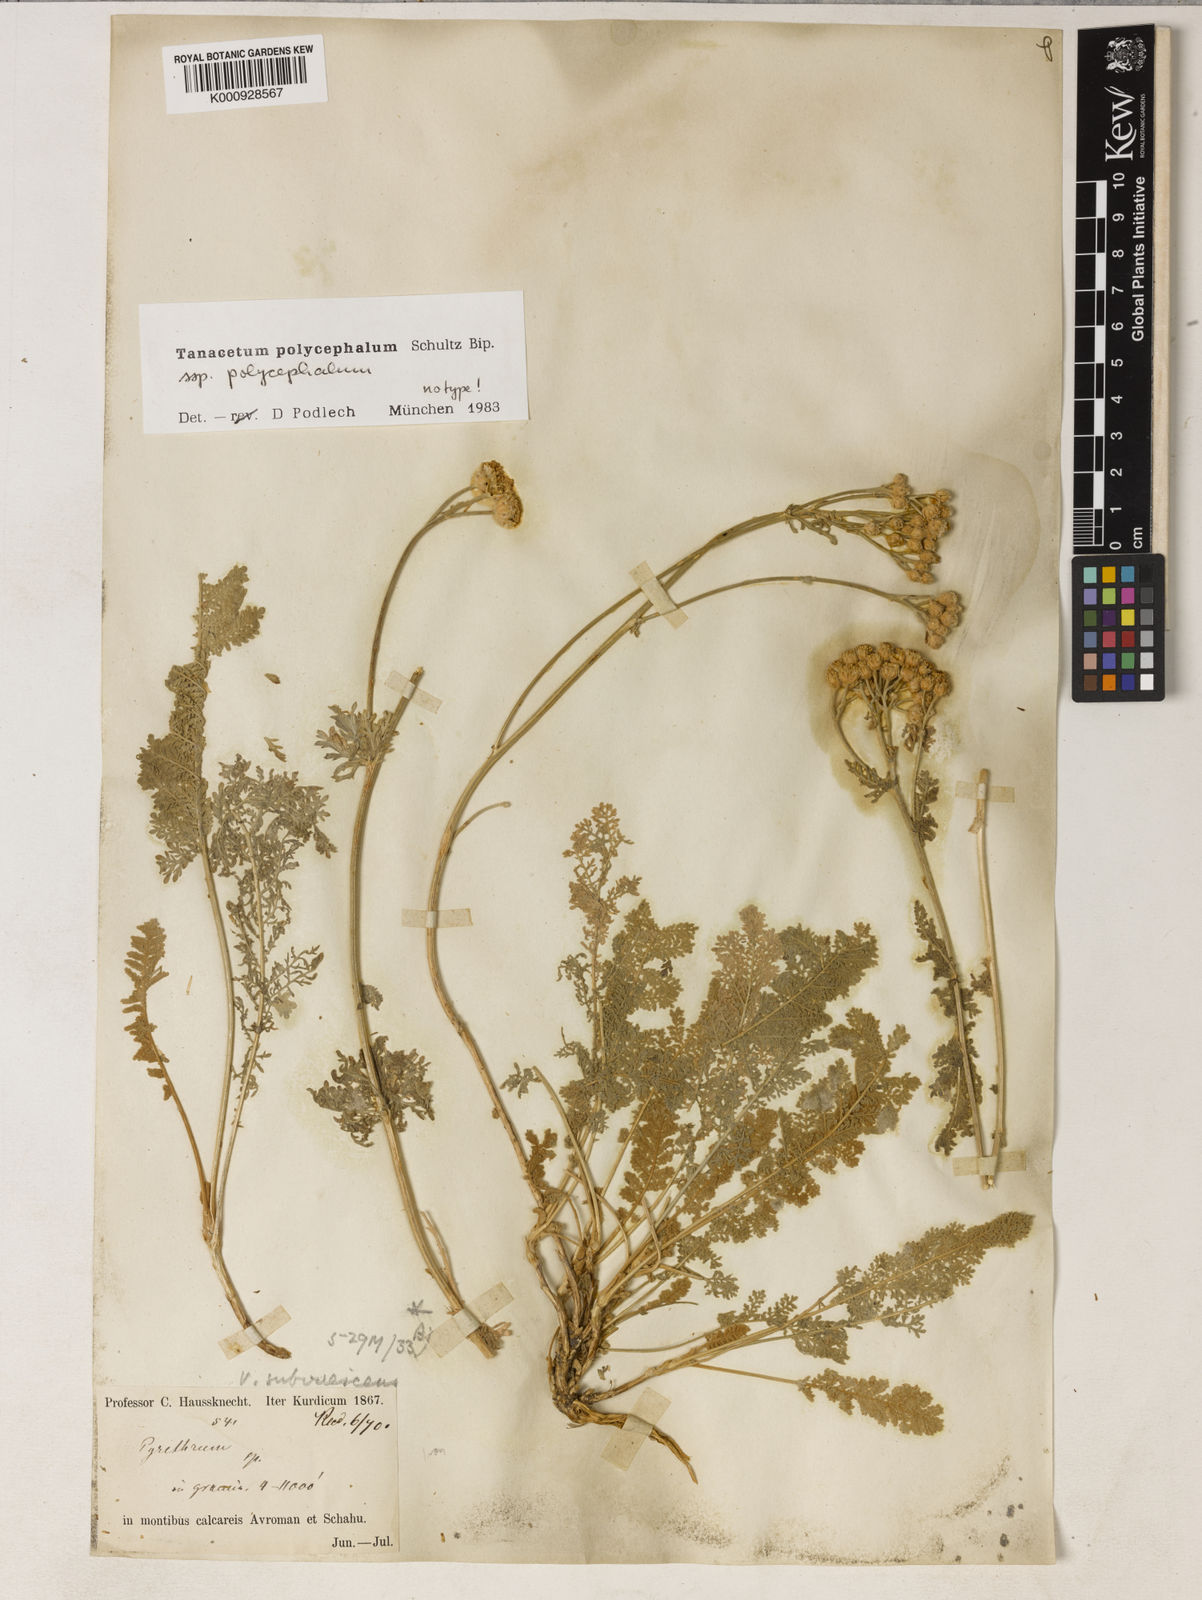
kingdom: Plantae
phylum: Tracheophyta
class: Magnoliopsida
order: Asterales
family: Asteraceae
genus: Tanacetum
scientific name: Tanacetum polycephalum
